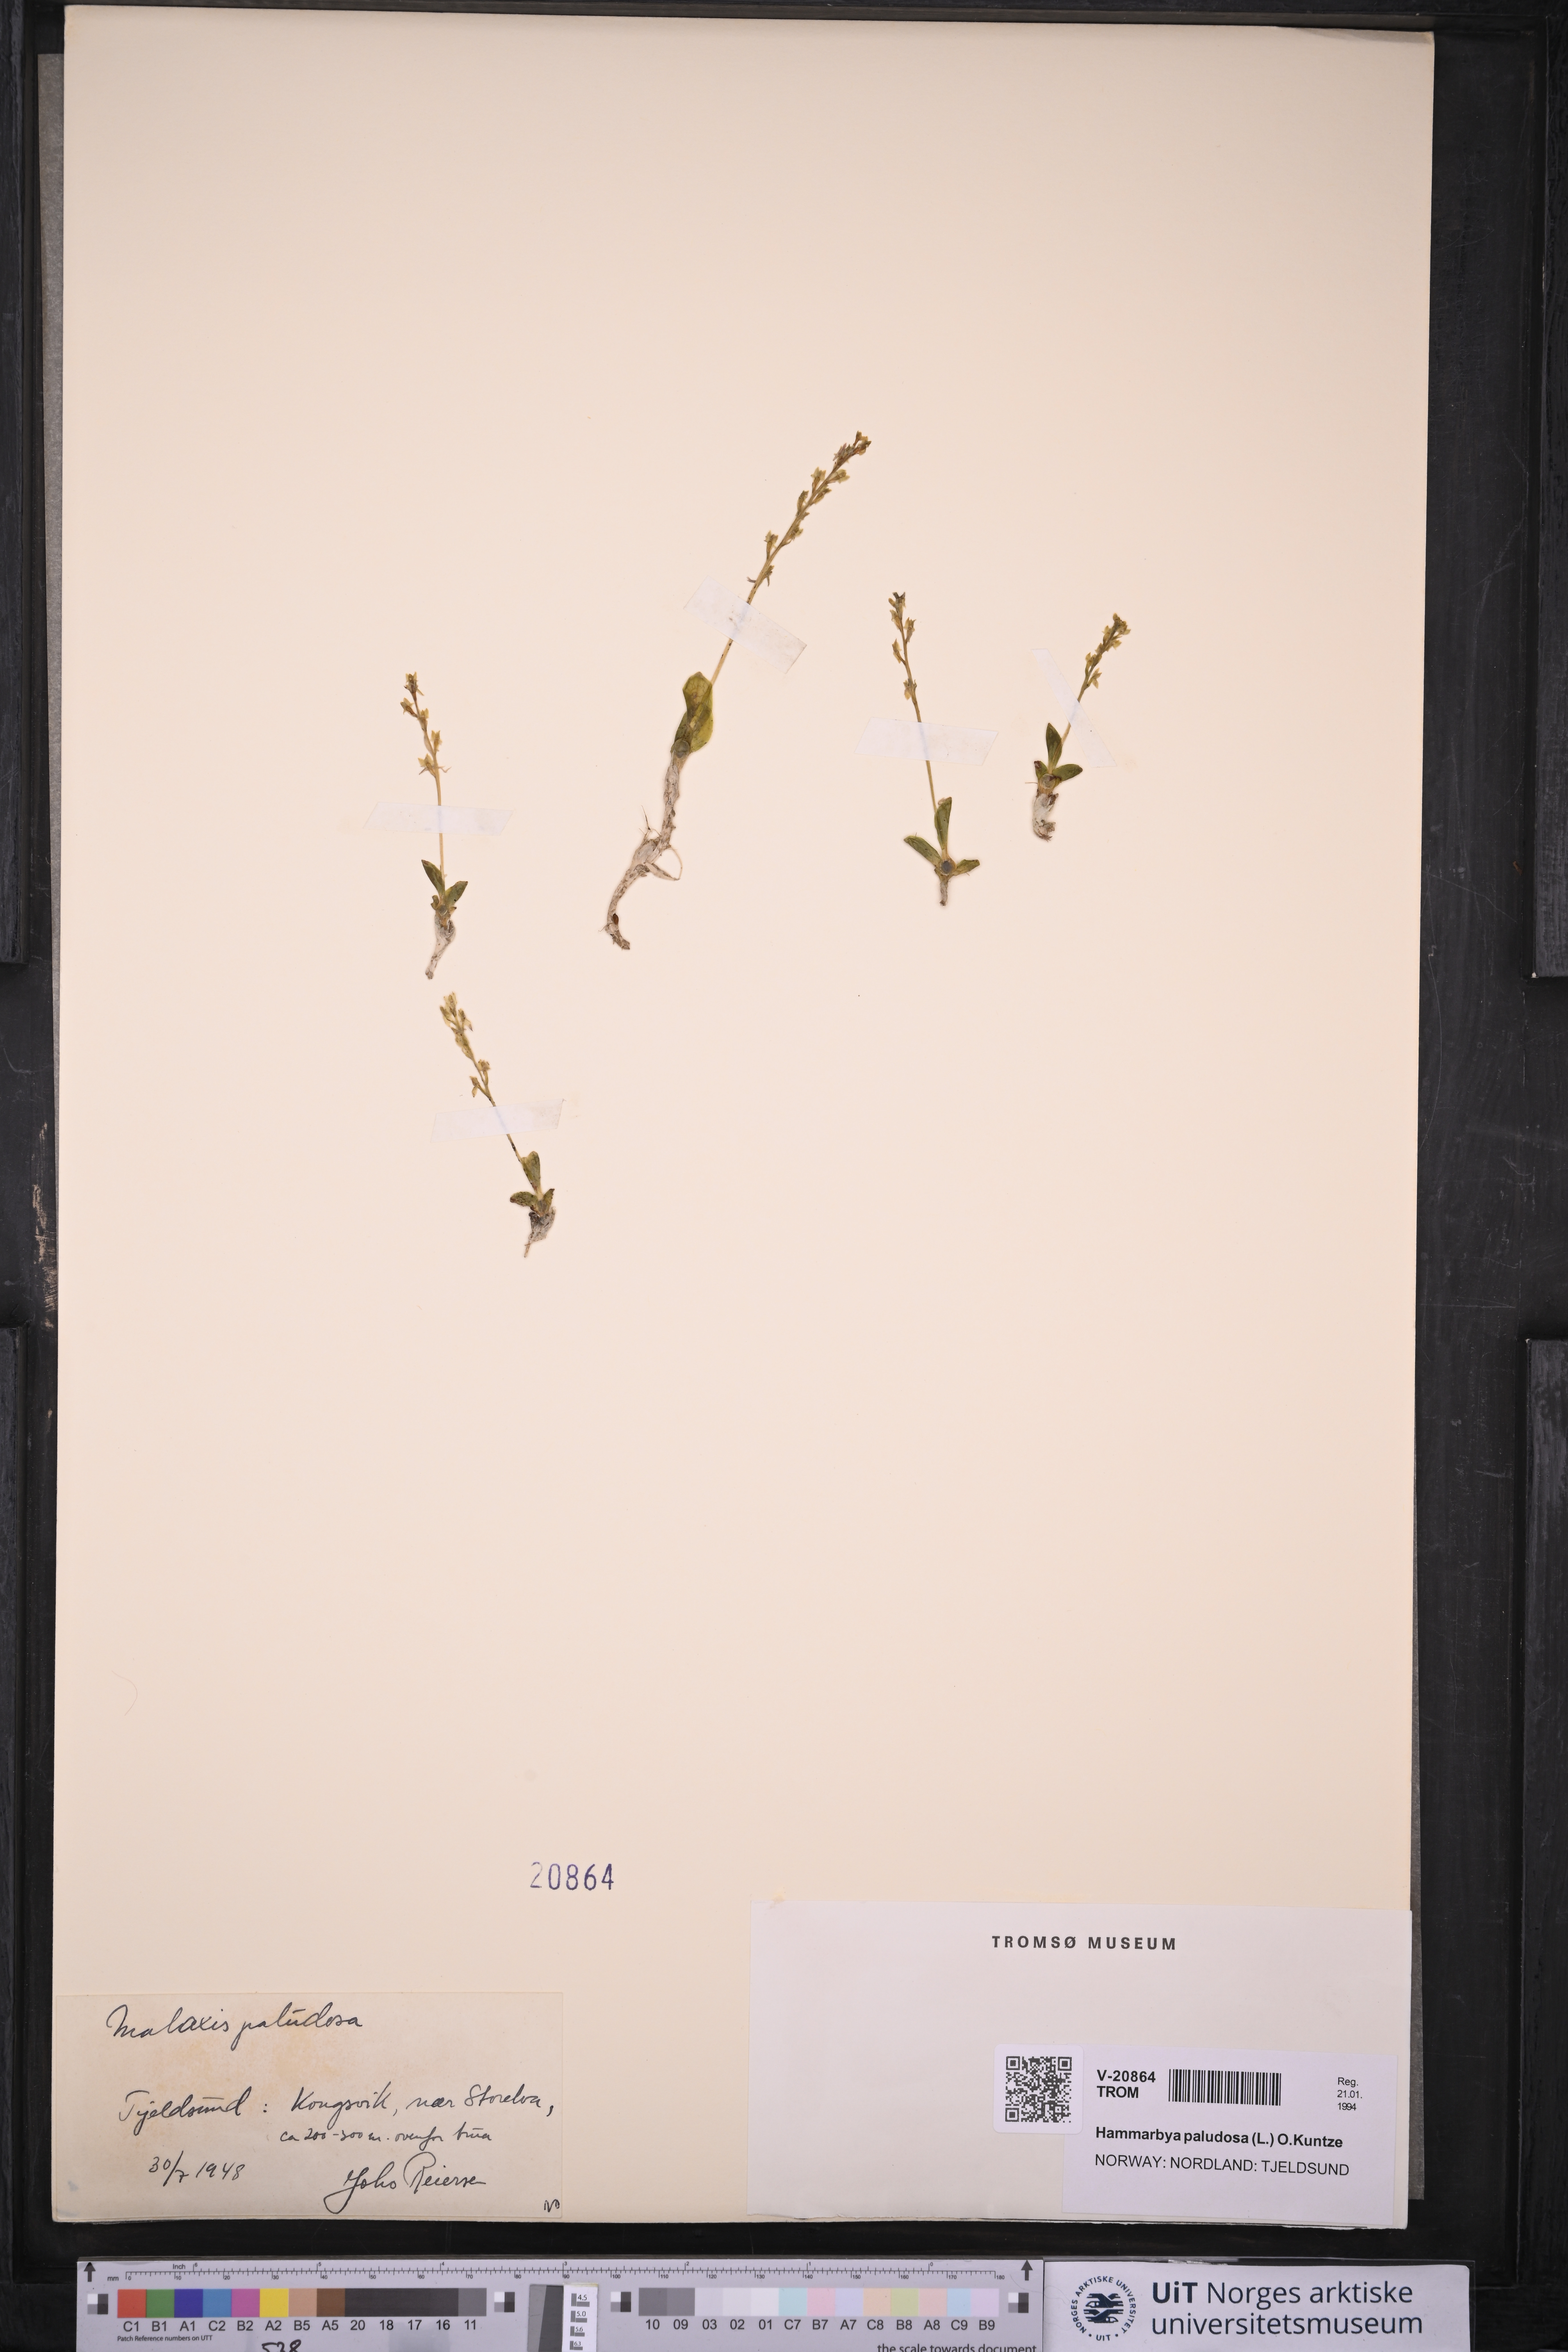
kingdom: Plantae
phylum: Tracheophyta
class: Liliopsida
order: Asparagales
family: Orchidaceae
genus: Hammarbya
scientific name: Hammarbya paludosa
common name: Bog orchid
